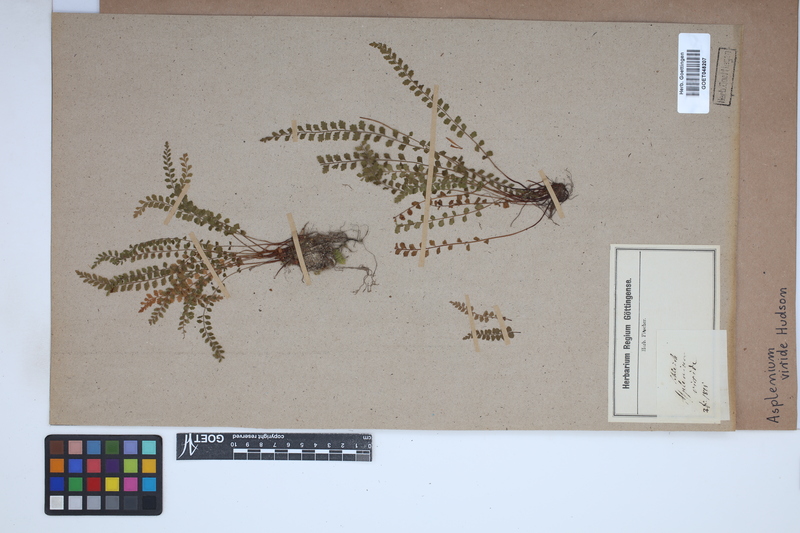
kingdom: Plantae
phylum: Tracheophyta
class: Polypodiopsida
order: Polypodiales
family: Aspleniaceae
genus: Asplenium
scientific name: Asplenium viride
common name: Green spleenwort
